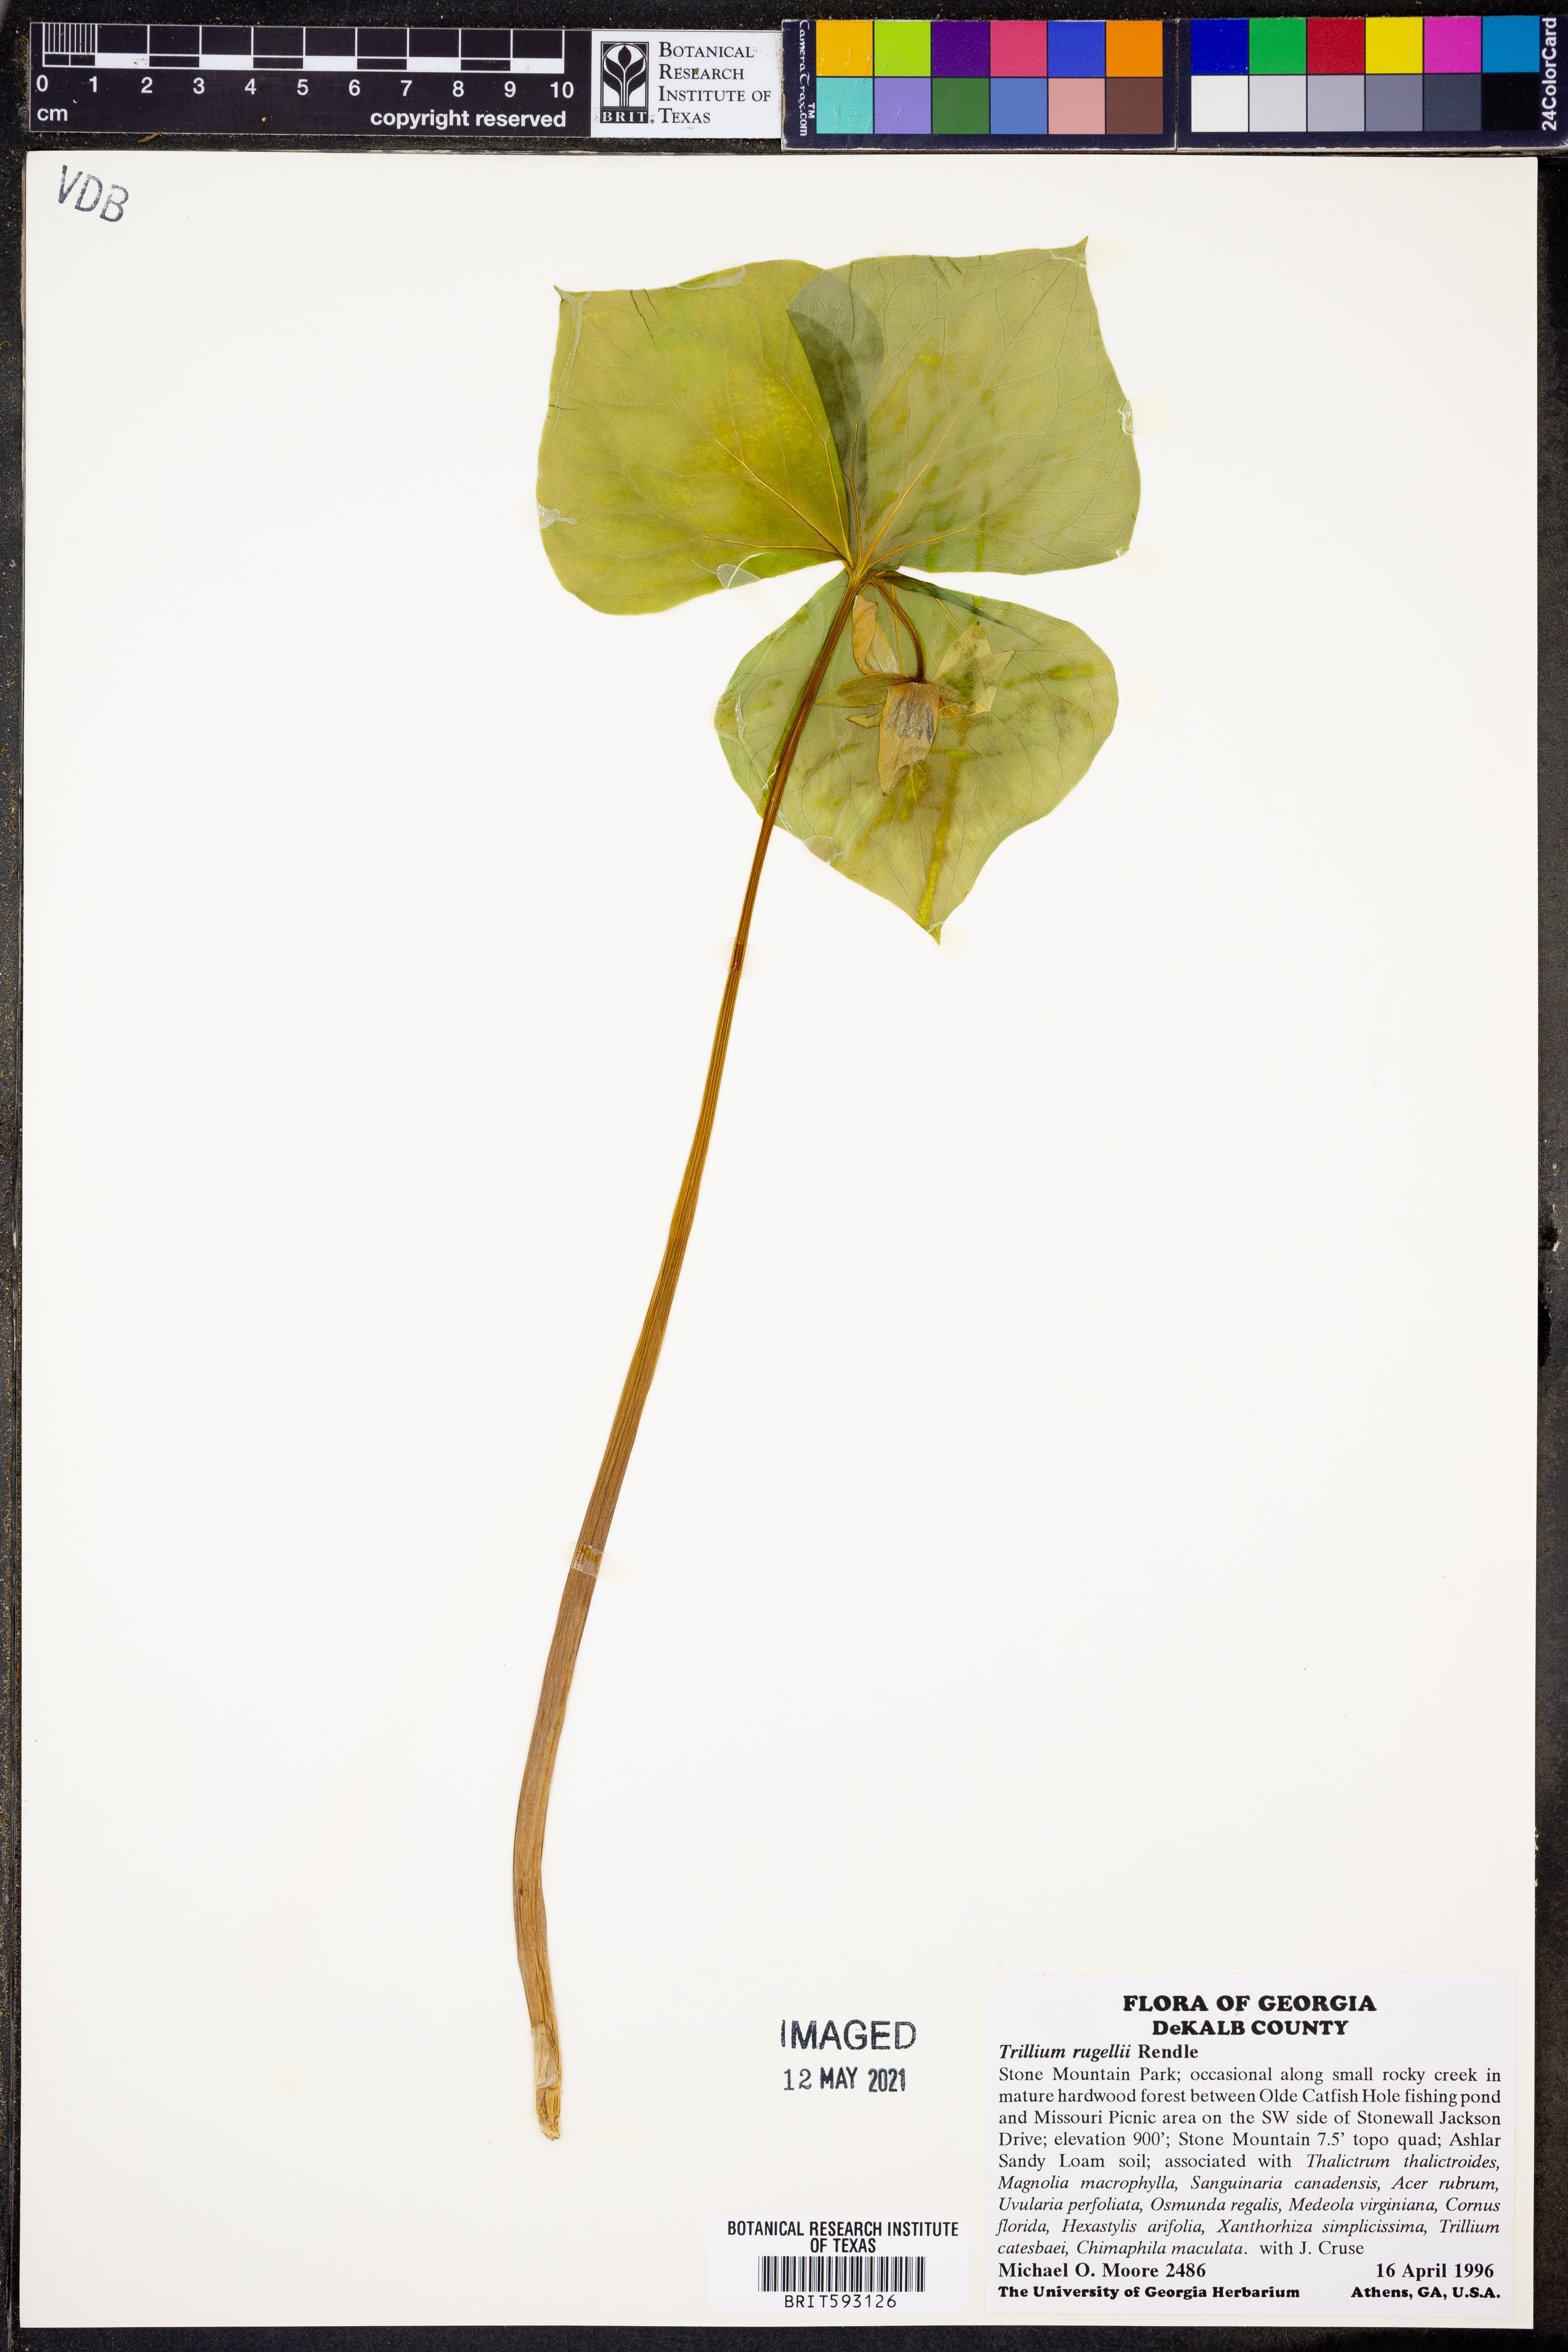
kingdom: Plantae
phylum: Tracheophyta
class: Liliopsida
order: Liliales
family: Melanthiaceae
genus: Trillium
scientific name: Trillium rugelii
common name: Ill-scented trillium
